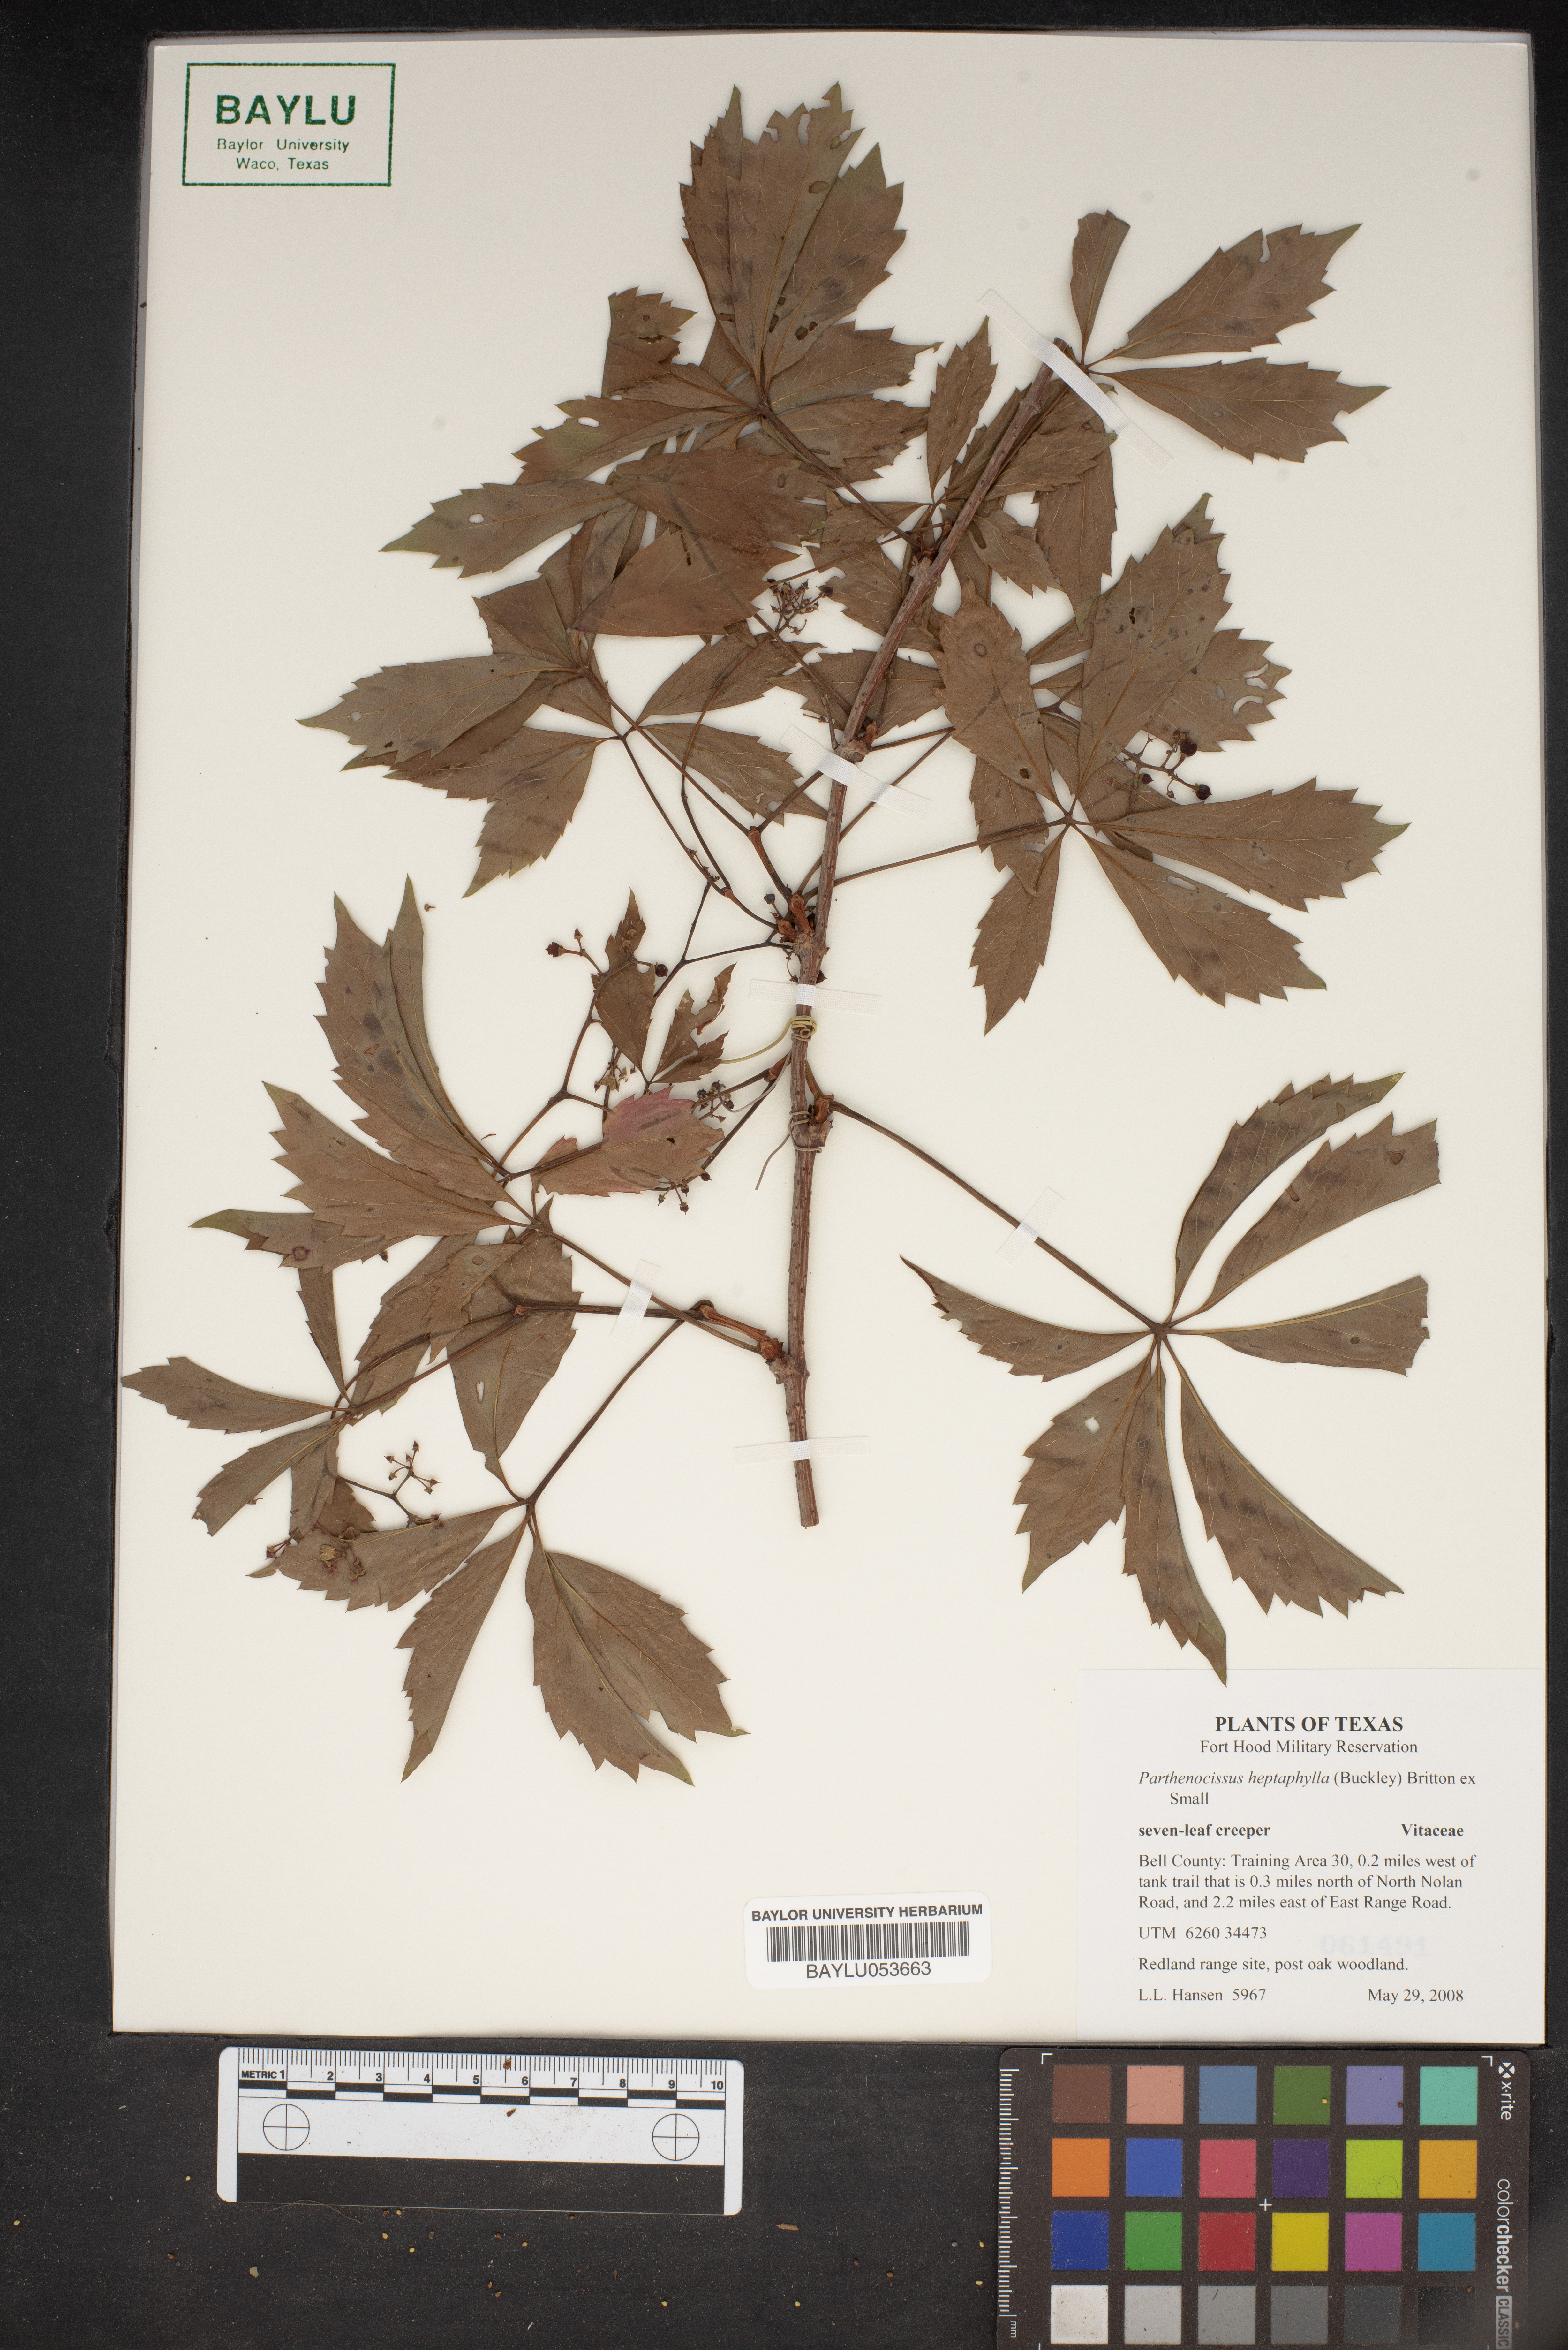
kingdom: Plantae
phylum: Tracheophyta
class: Magnoliopsida
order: Vitales
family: Vitaceae
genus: Parthenocissus
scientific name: Parthenocissus heptaphylla
